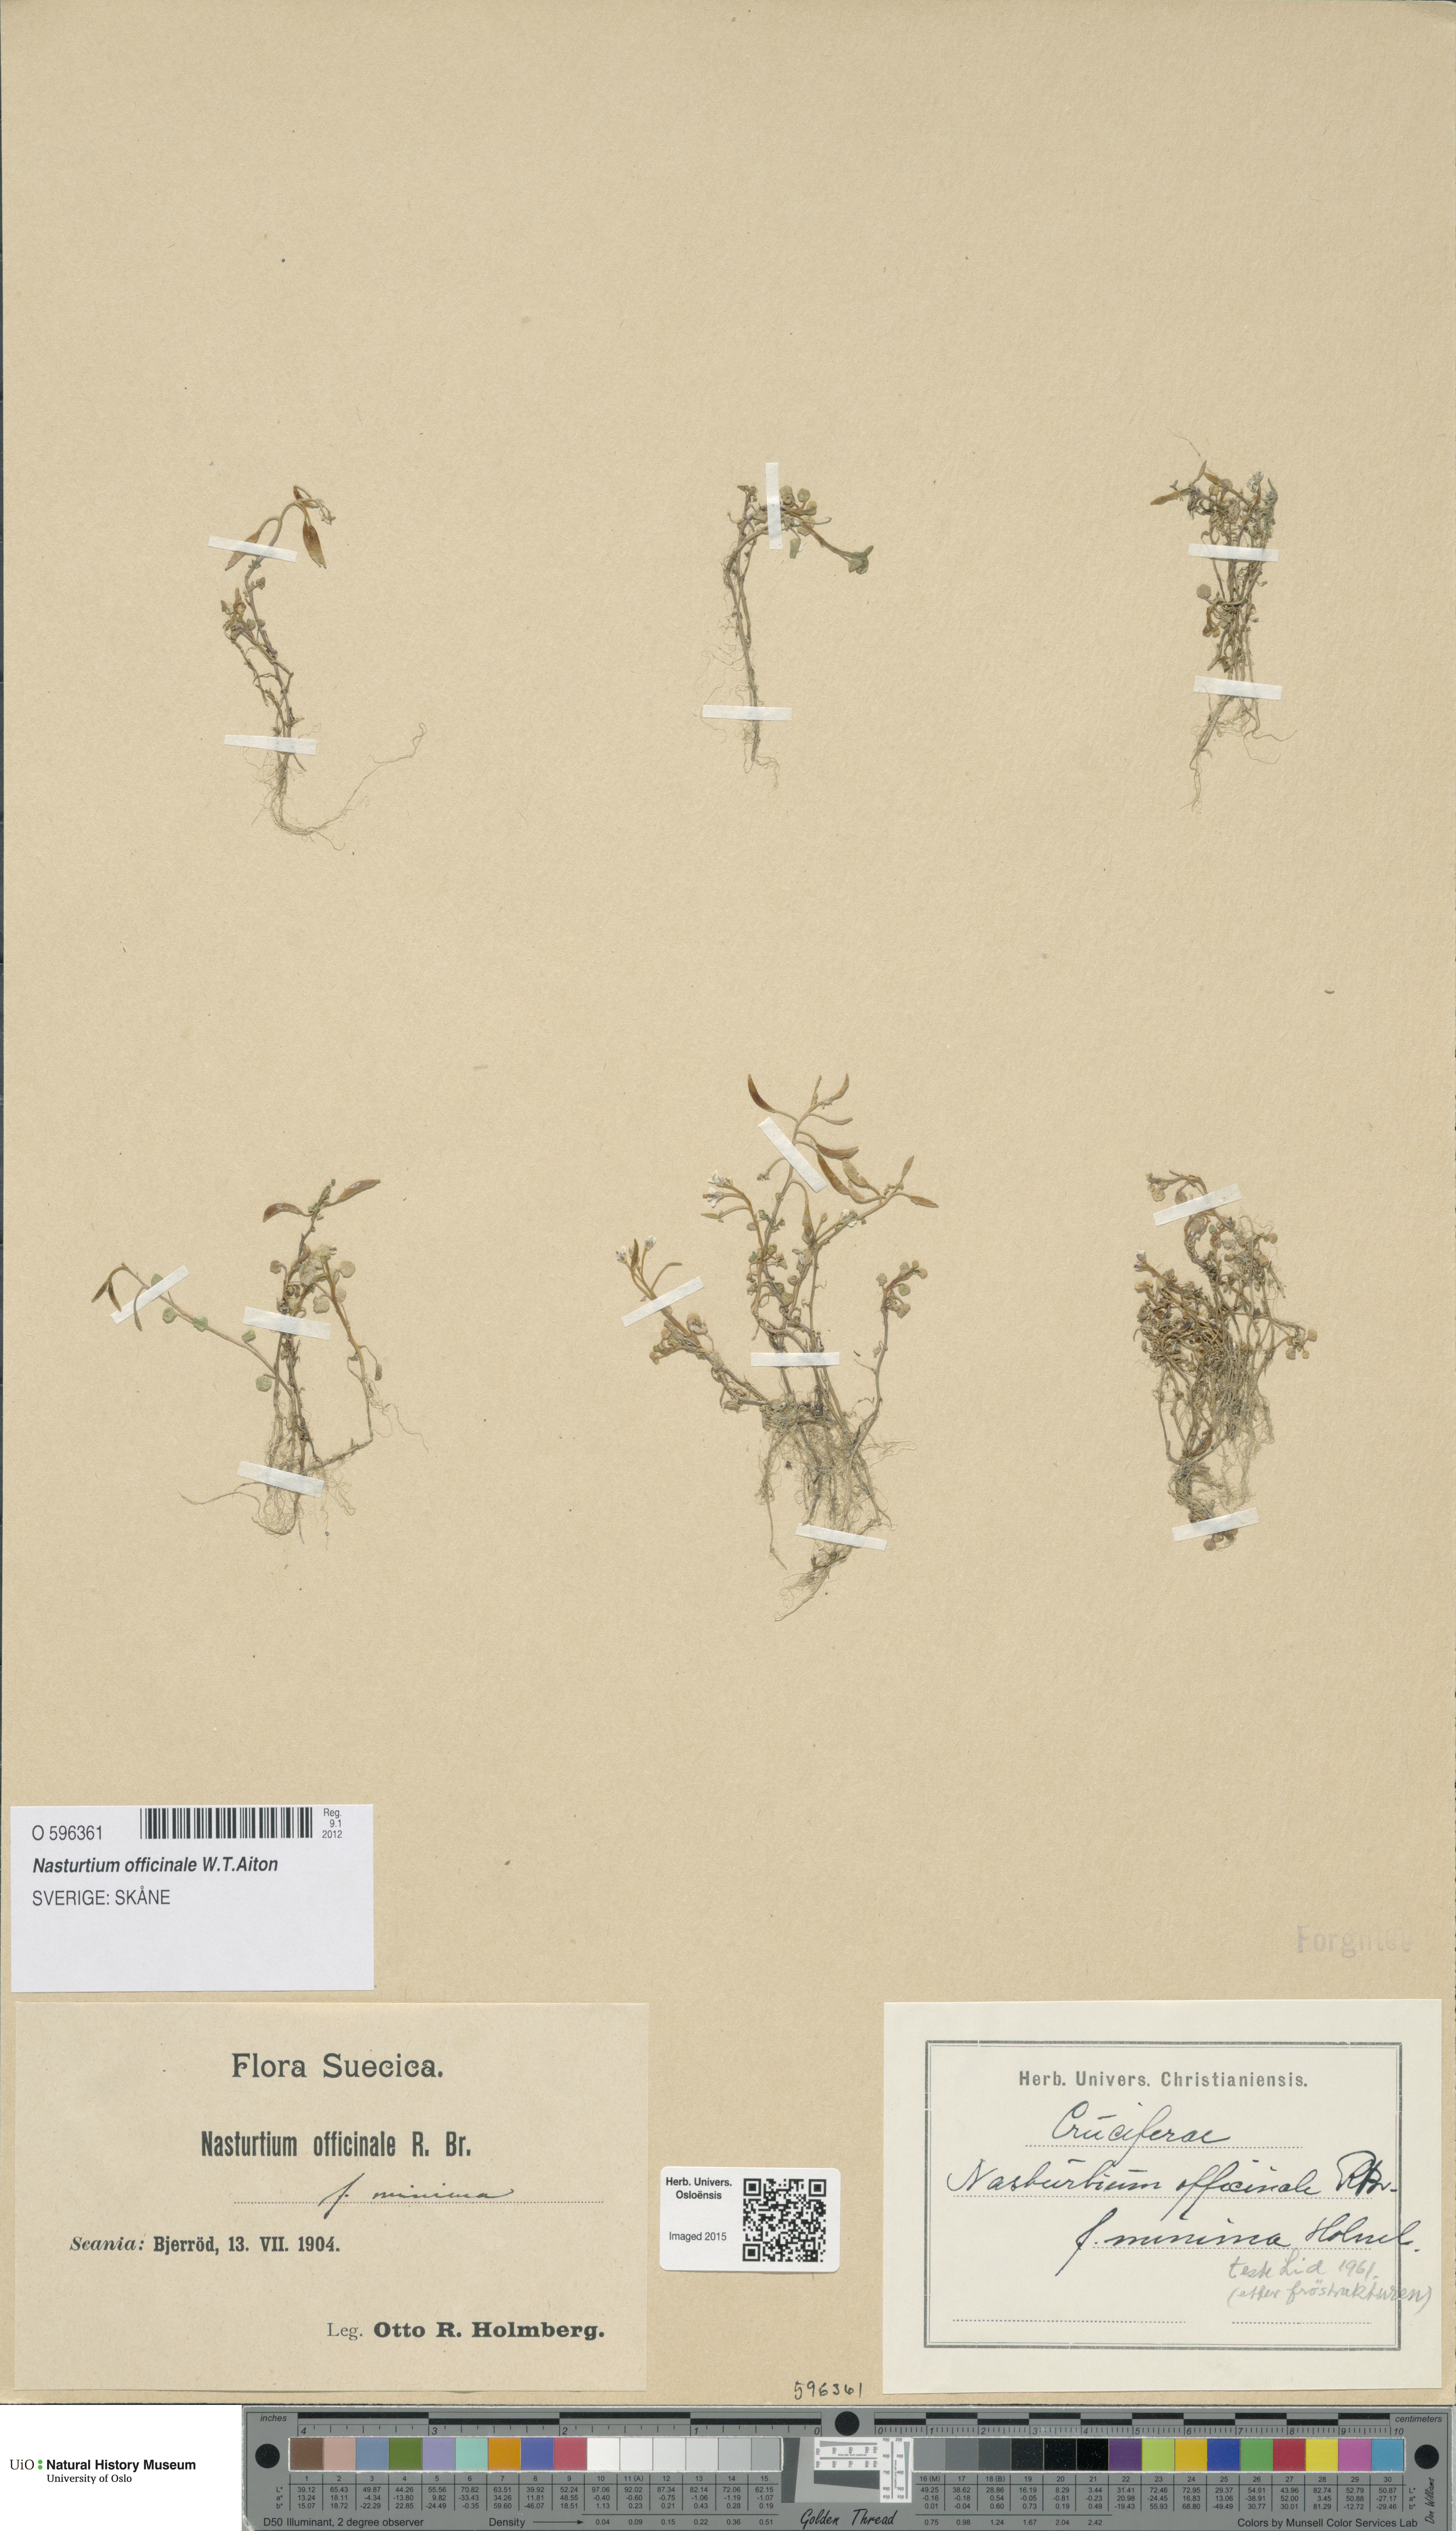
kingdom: Plantae
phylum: Tracheophyta
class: Magnoliopsida
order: Brassicales
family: Brassicaceae
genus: Nasturtium
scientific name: Nasturtium officinale
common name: Watercress
